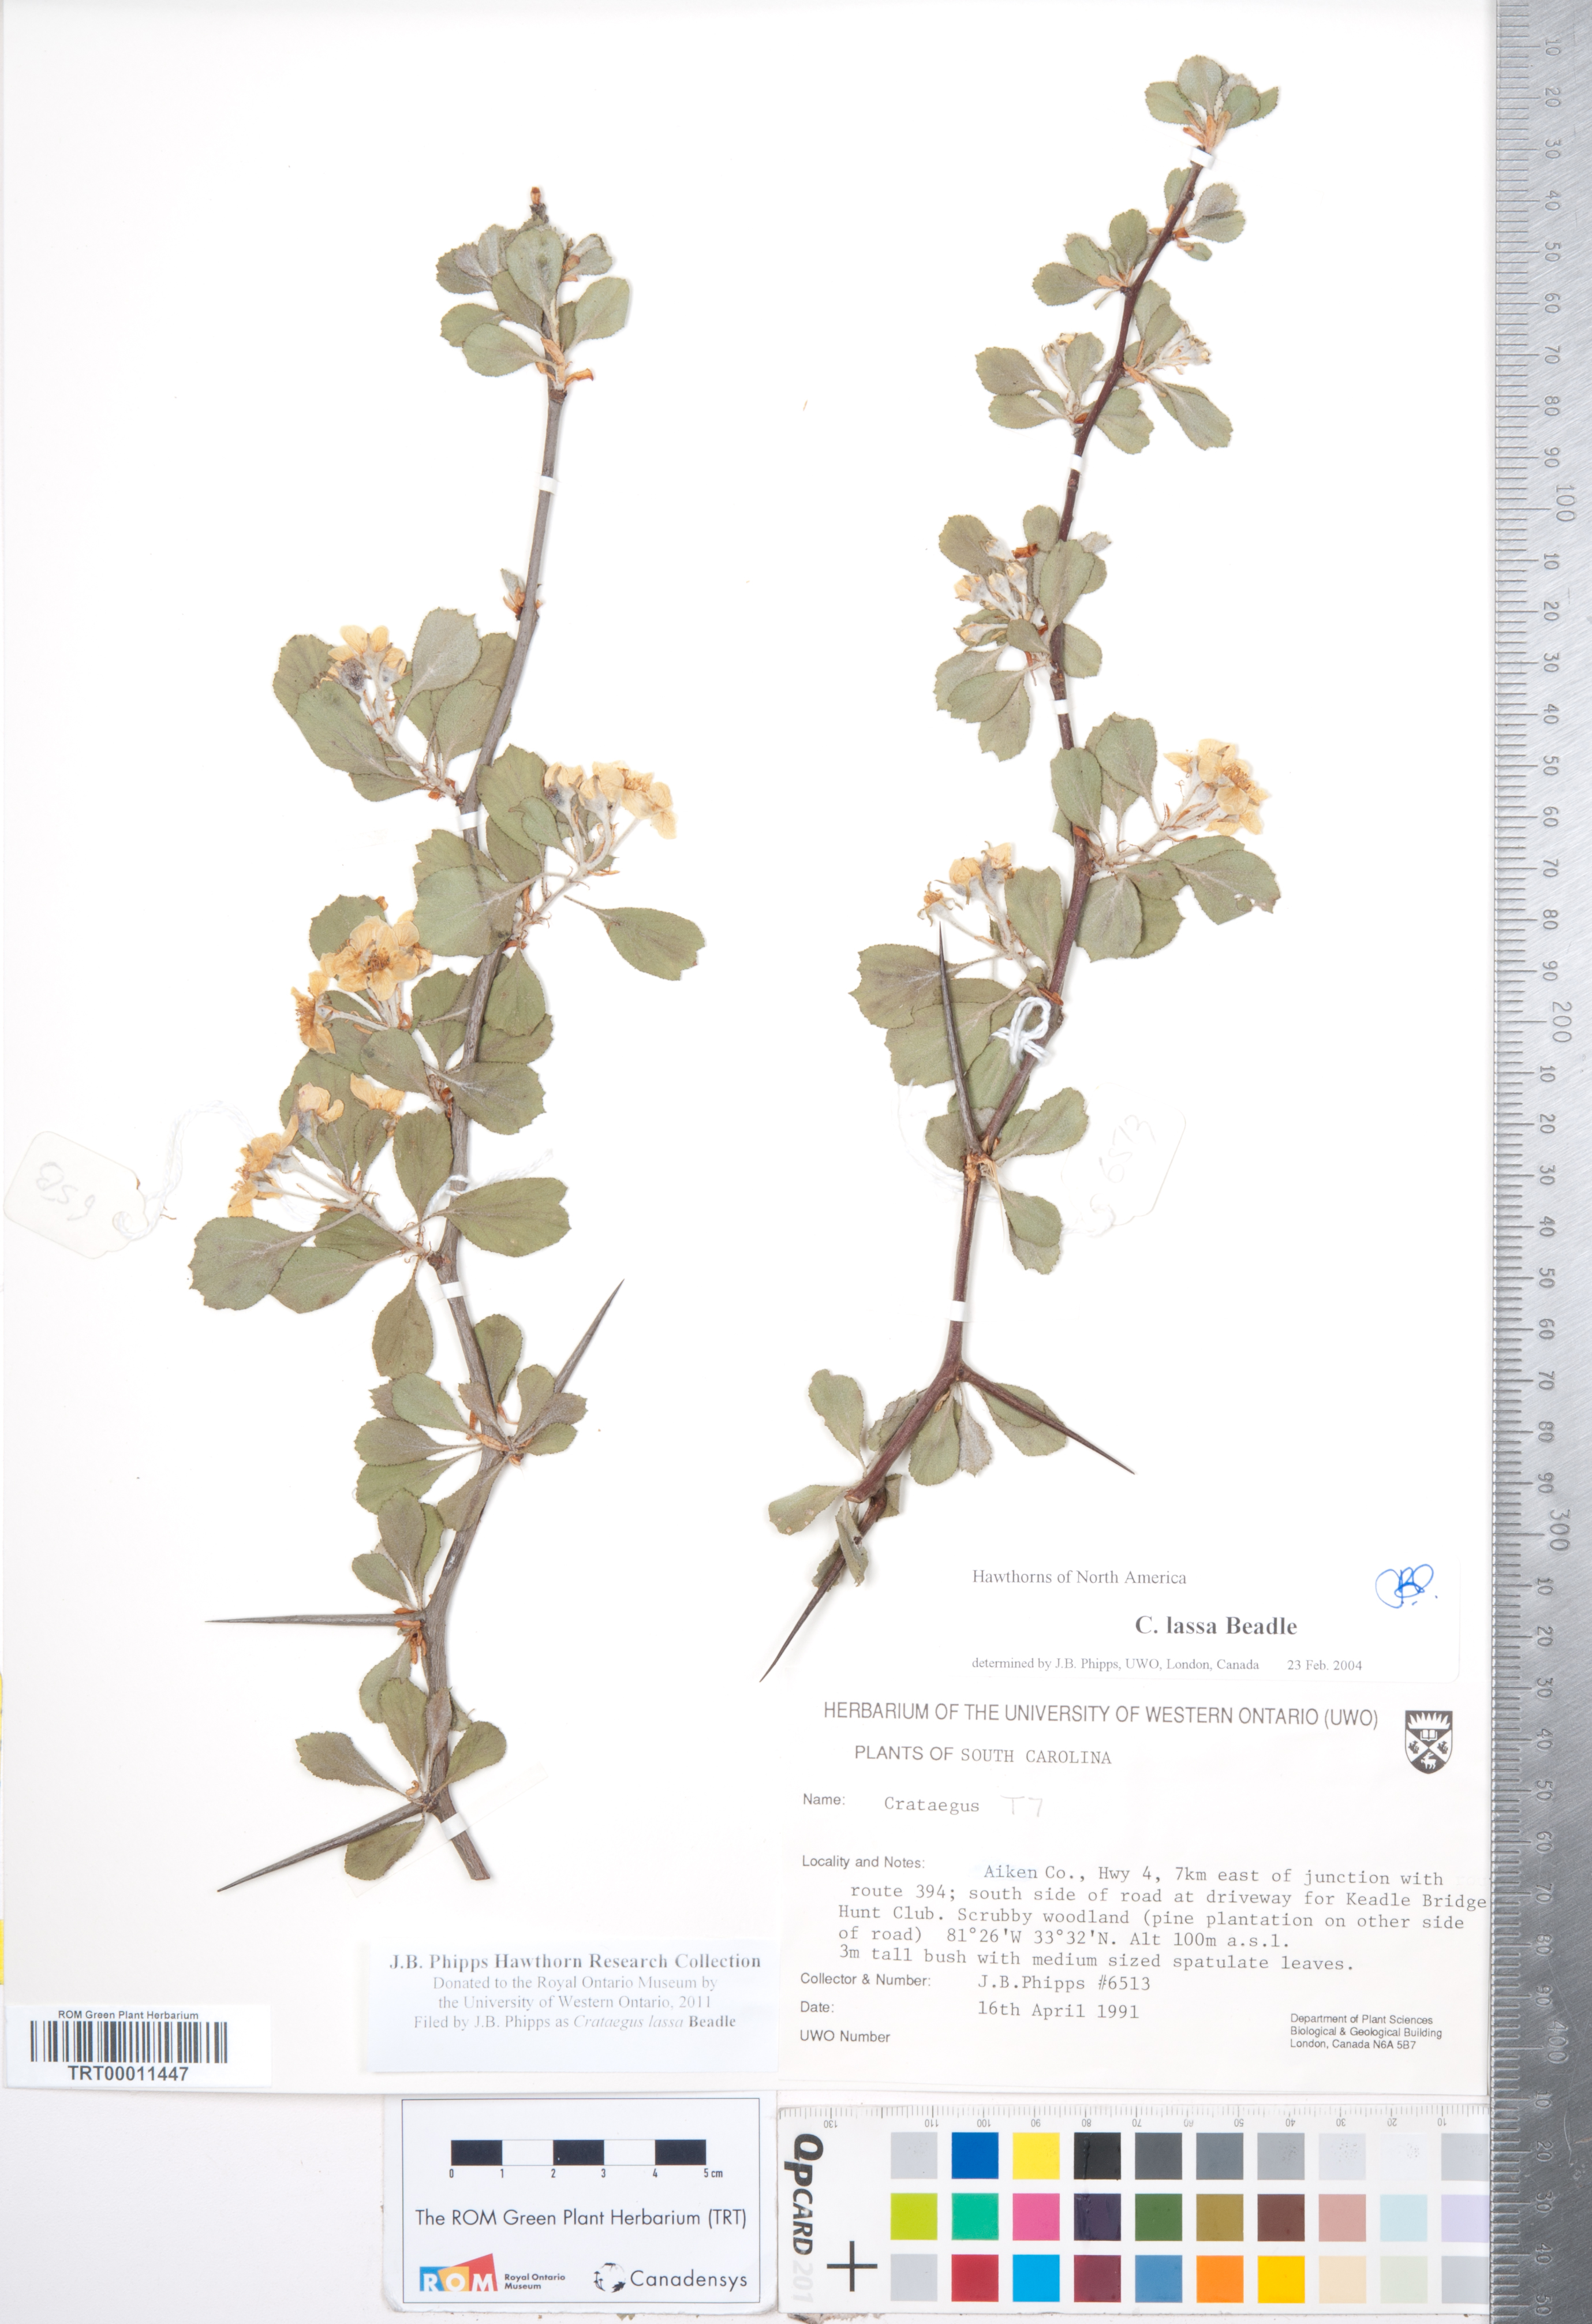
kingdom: Plantae
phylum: Tracheophyta
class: Magnoliopsida
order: Rosales
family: Rosaceae
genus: Crataegus
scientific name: Crataegus lassa
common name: Florida hawthorn
